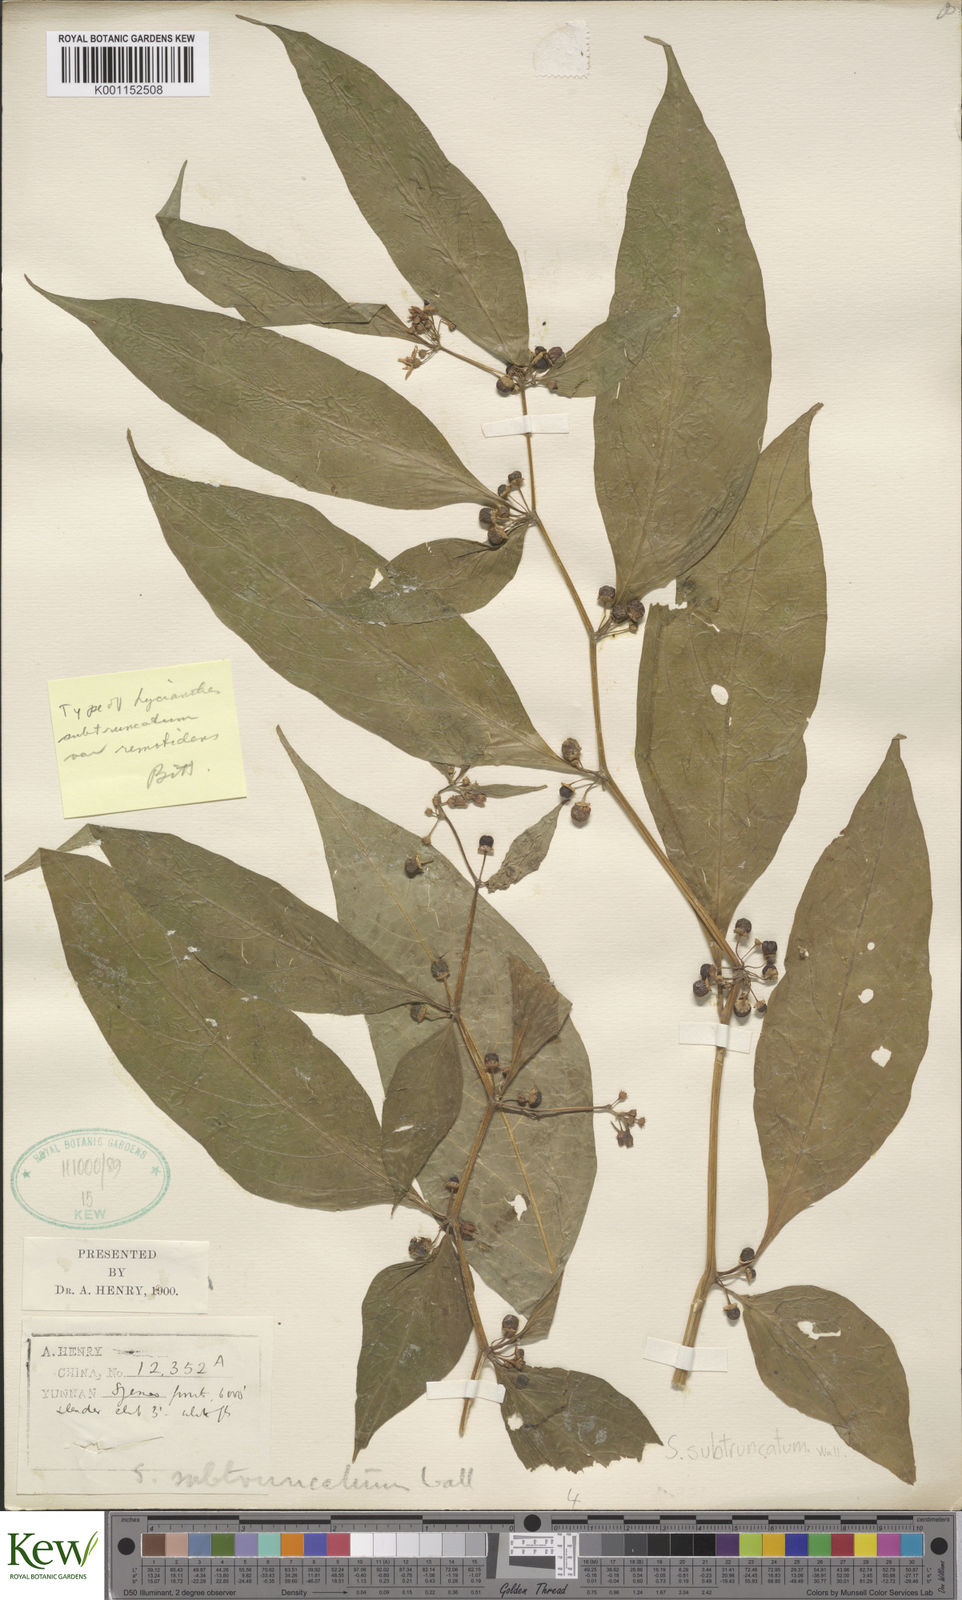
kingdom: Plantae
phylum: Tracheophyta
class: Magnoliopsida
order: Solanales
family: Solanaceae
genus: Lycianthes
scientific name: Lycianthes shunningensis
